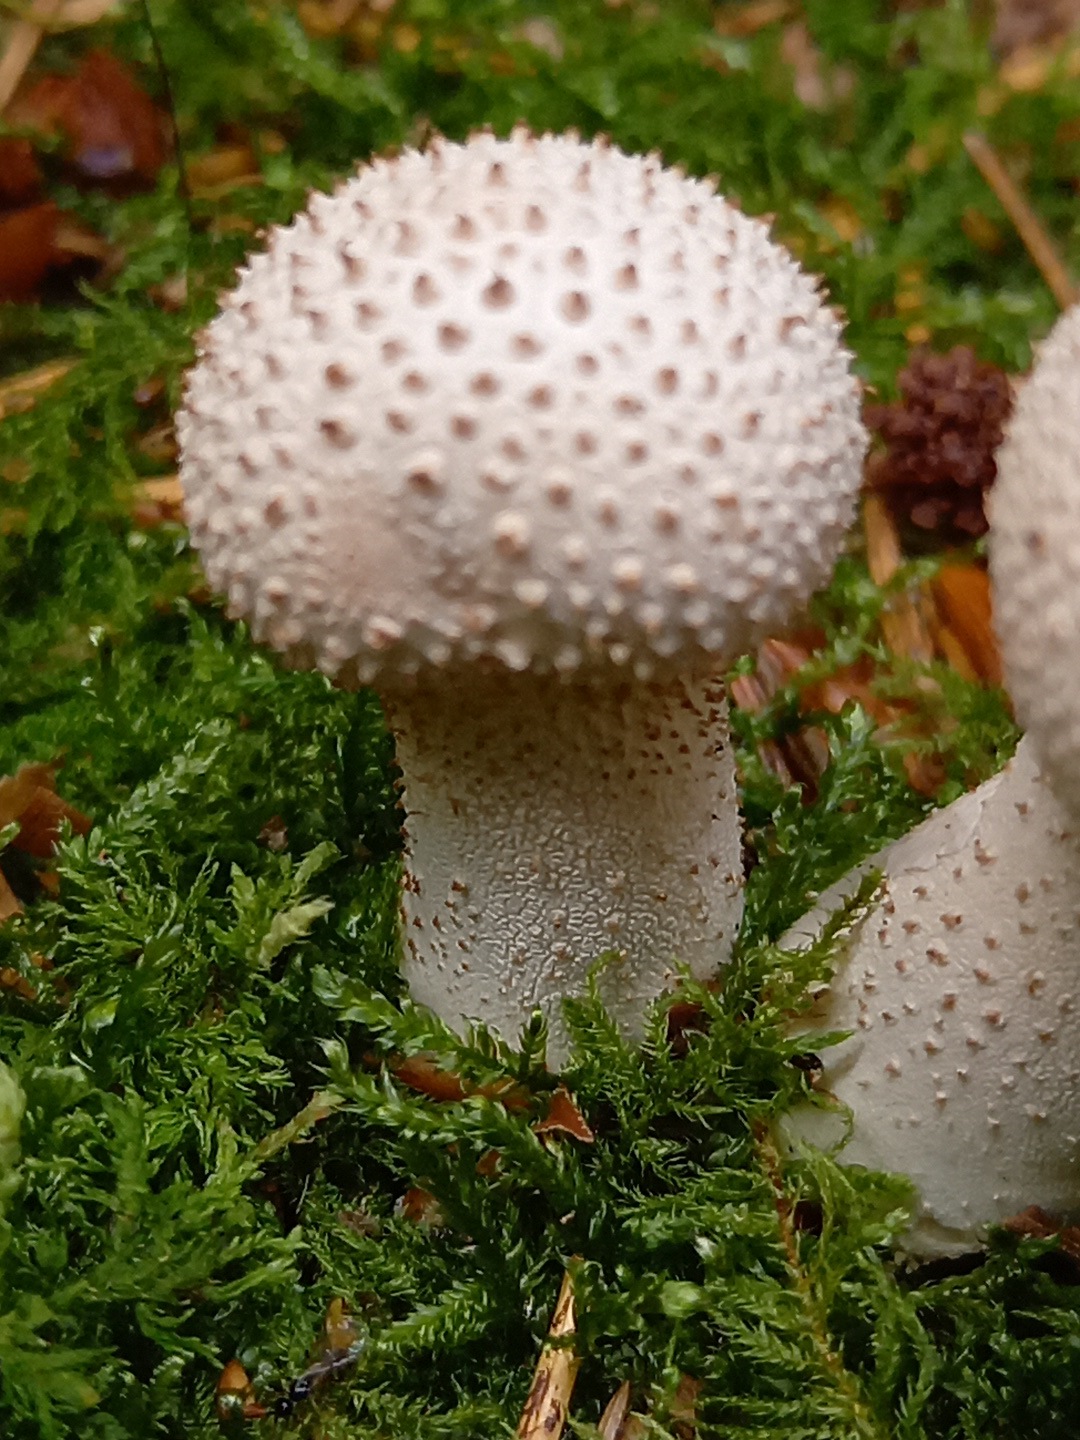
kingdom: Fungi
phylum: Basidiomycota
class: Agaricomycetes
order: Agaricales
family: Lycoperdaceae
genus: Lycoperdon
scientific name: Lycoperdon perlatum
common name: krystal-støvbold
